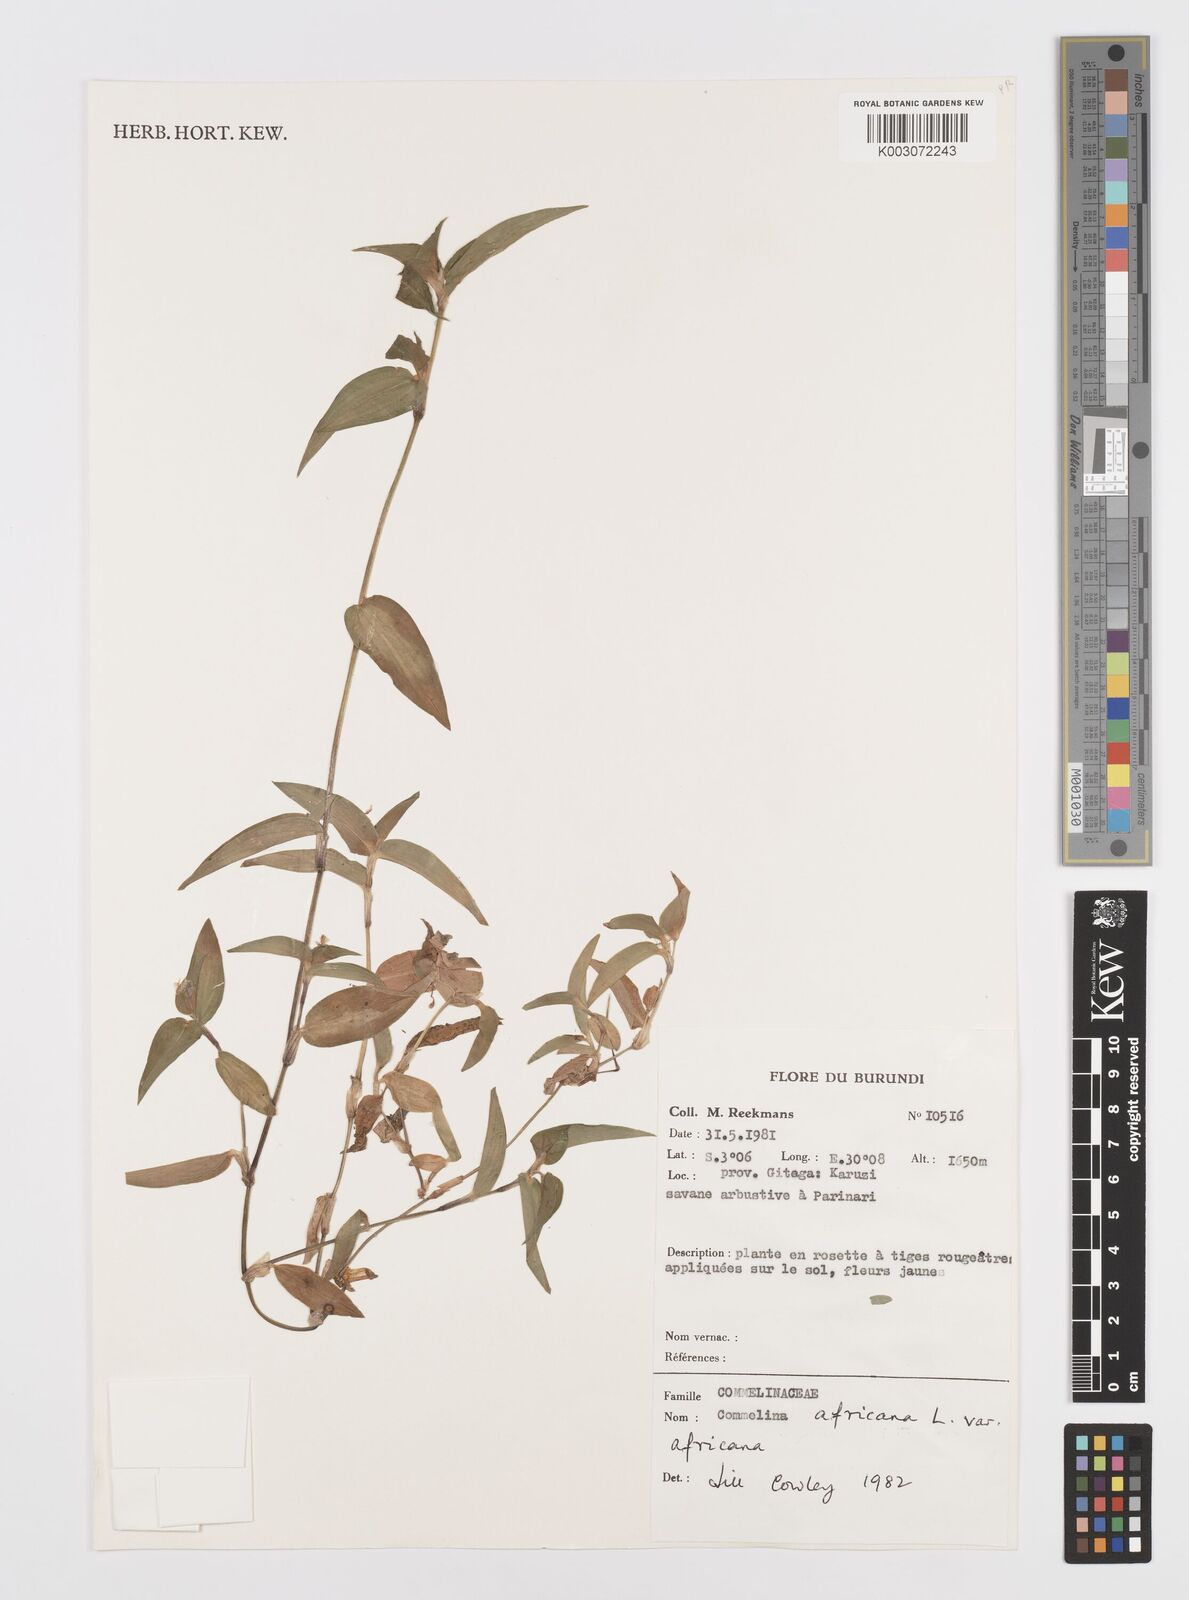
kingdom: Plantae
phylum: Tracheophyta
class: Liliopsida
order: Commelinales
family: Commelinaceae
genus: Commelina
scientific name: Commelina africana
